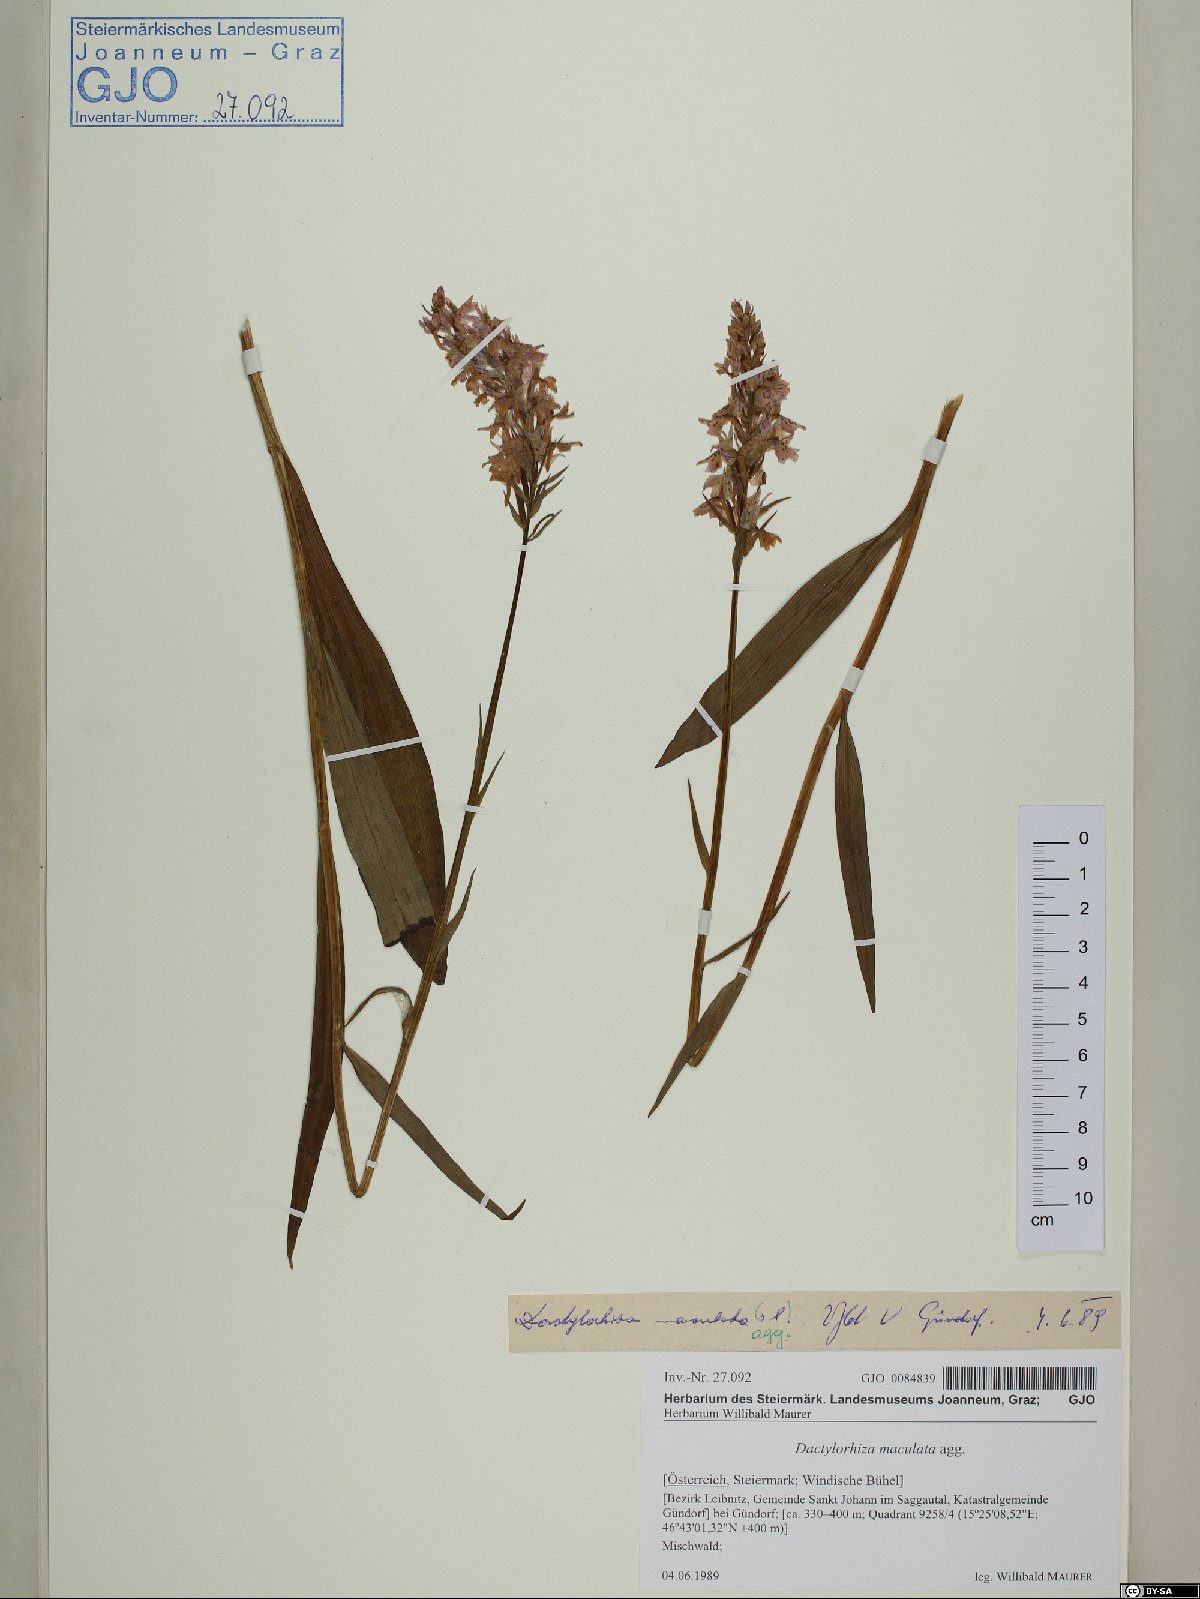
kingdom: Plantae
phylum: Tracheophyta
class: Liliopsida
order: Asparagales
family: Orchidaceae
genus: Dactylorhiza
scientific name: Dactylorhiza maculata
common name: Heath spotted-orchid
